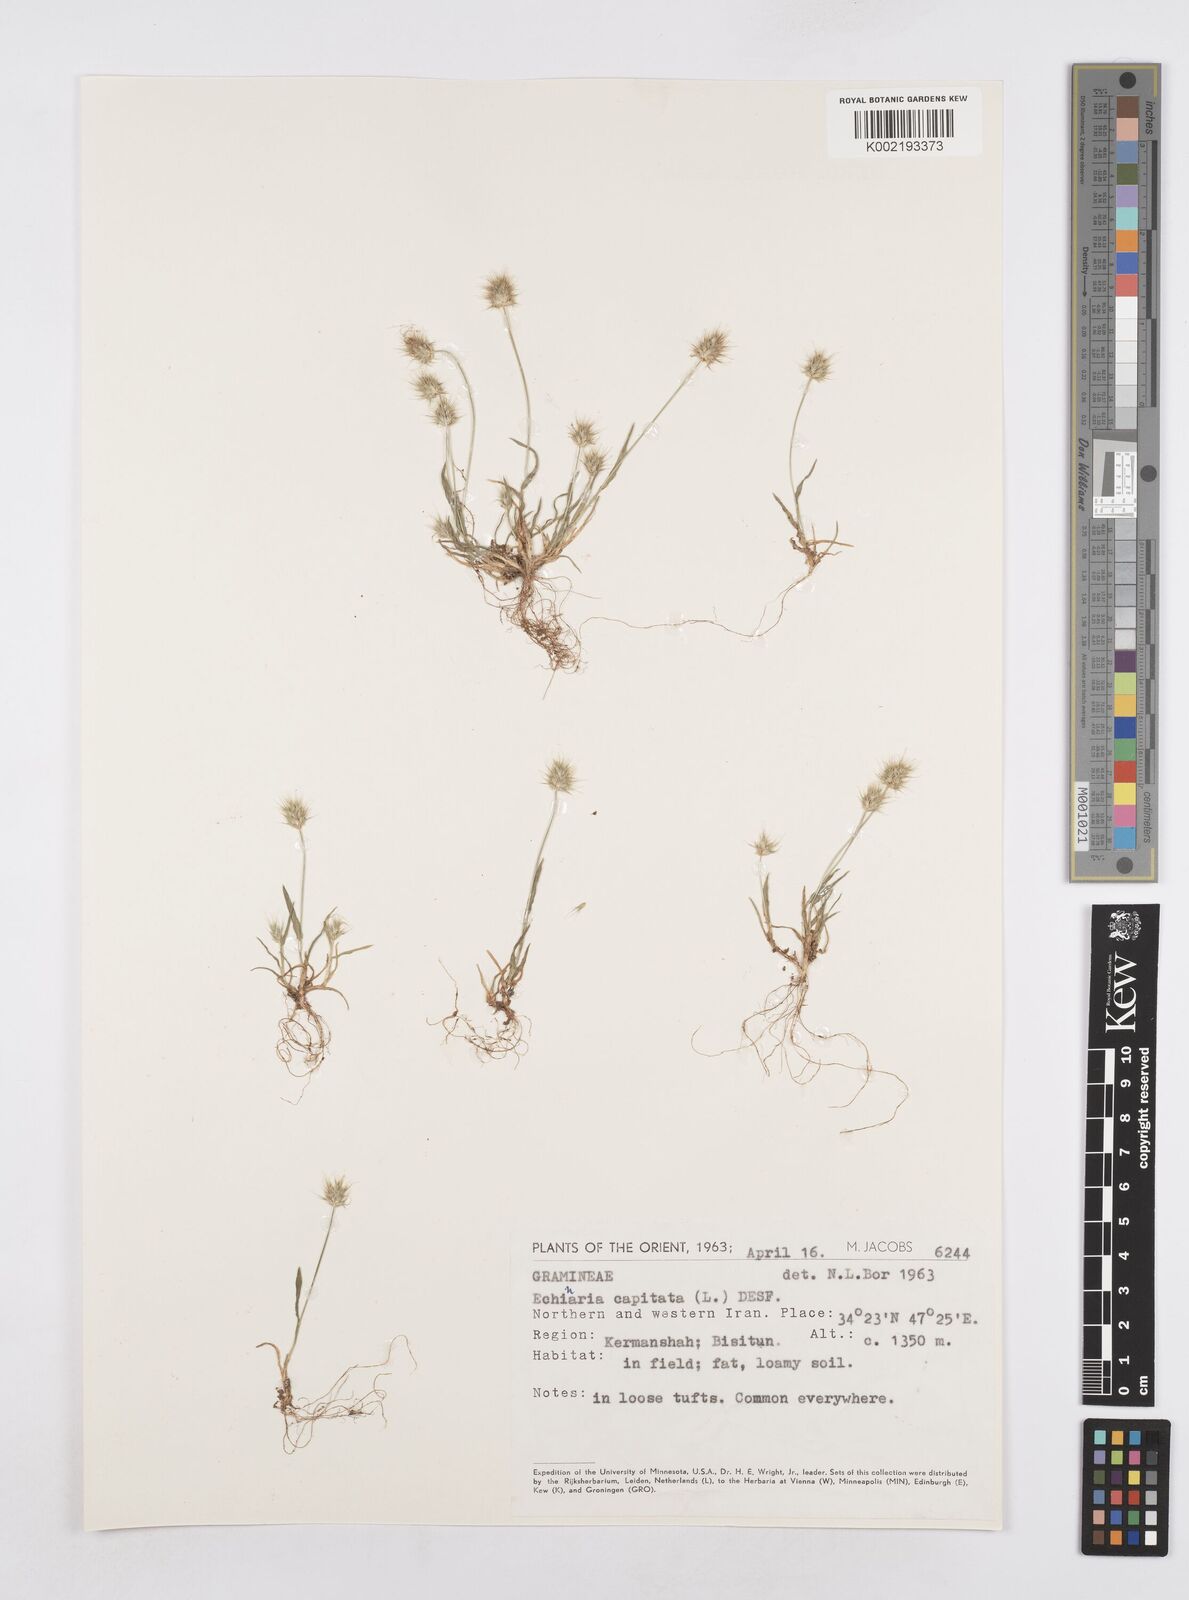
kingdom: Plantae
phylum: Tracheophyta
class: Liliopsida
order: Poales
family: Poaceae
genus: Echinaria
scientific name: Echinaria capitata
